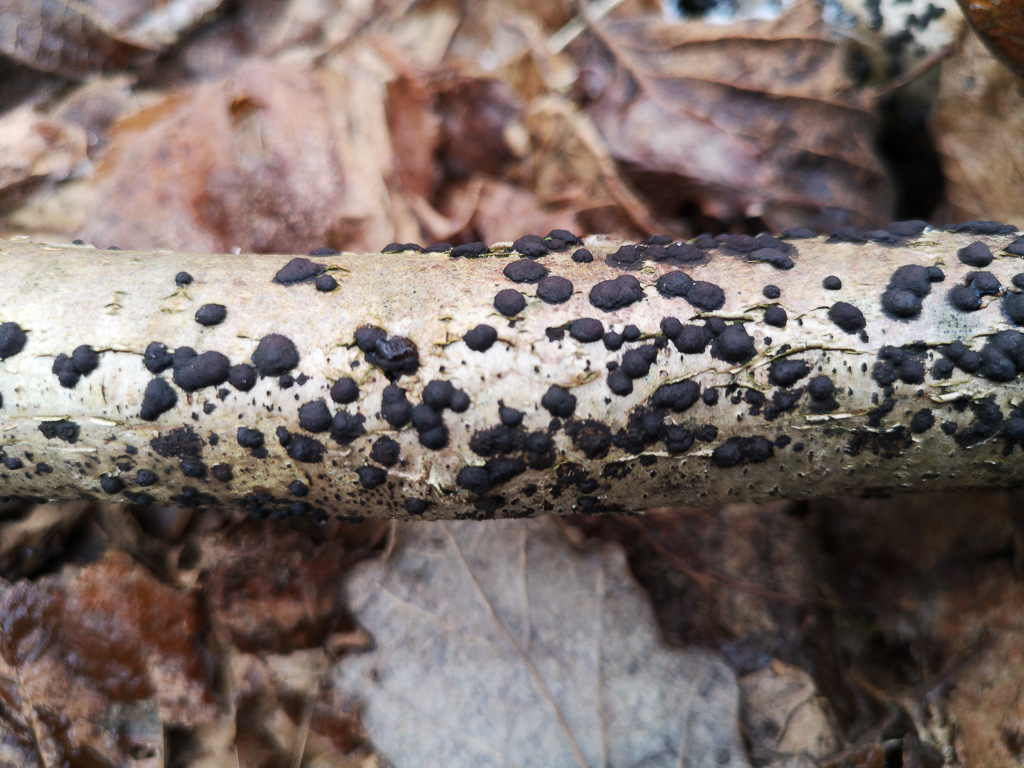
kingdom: Fungi
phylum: Ascomycota
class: Sordariomycetes
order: Xylariales
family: Hypoxylaceae
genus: Hypoxylon
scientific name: Hypoxylon fuscum
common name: kegleformet kulbær
